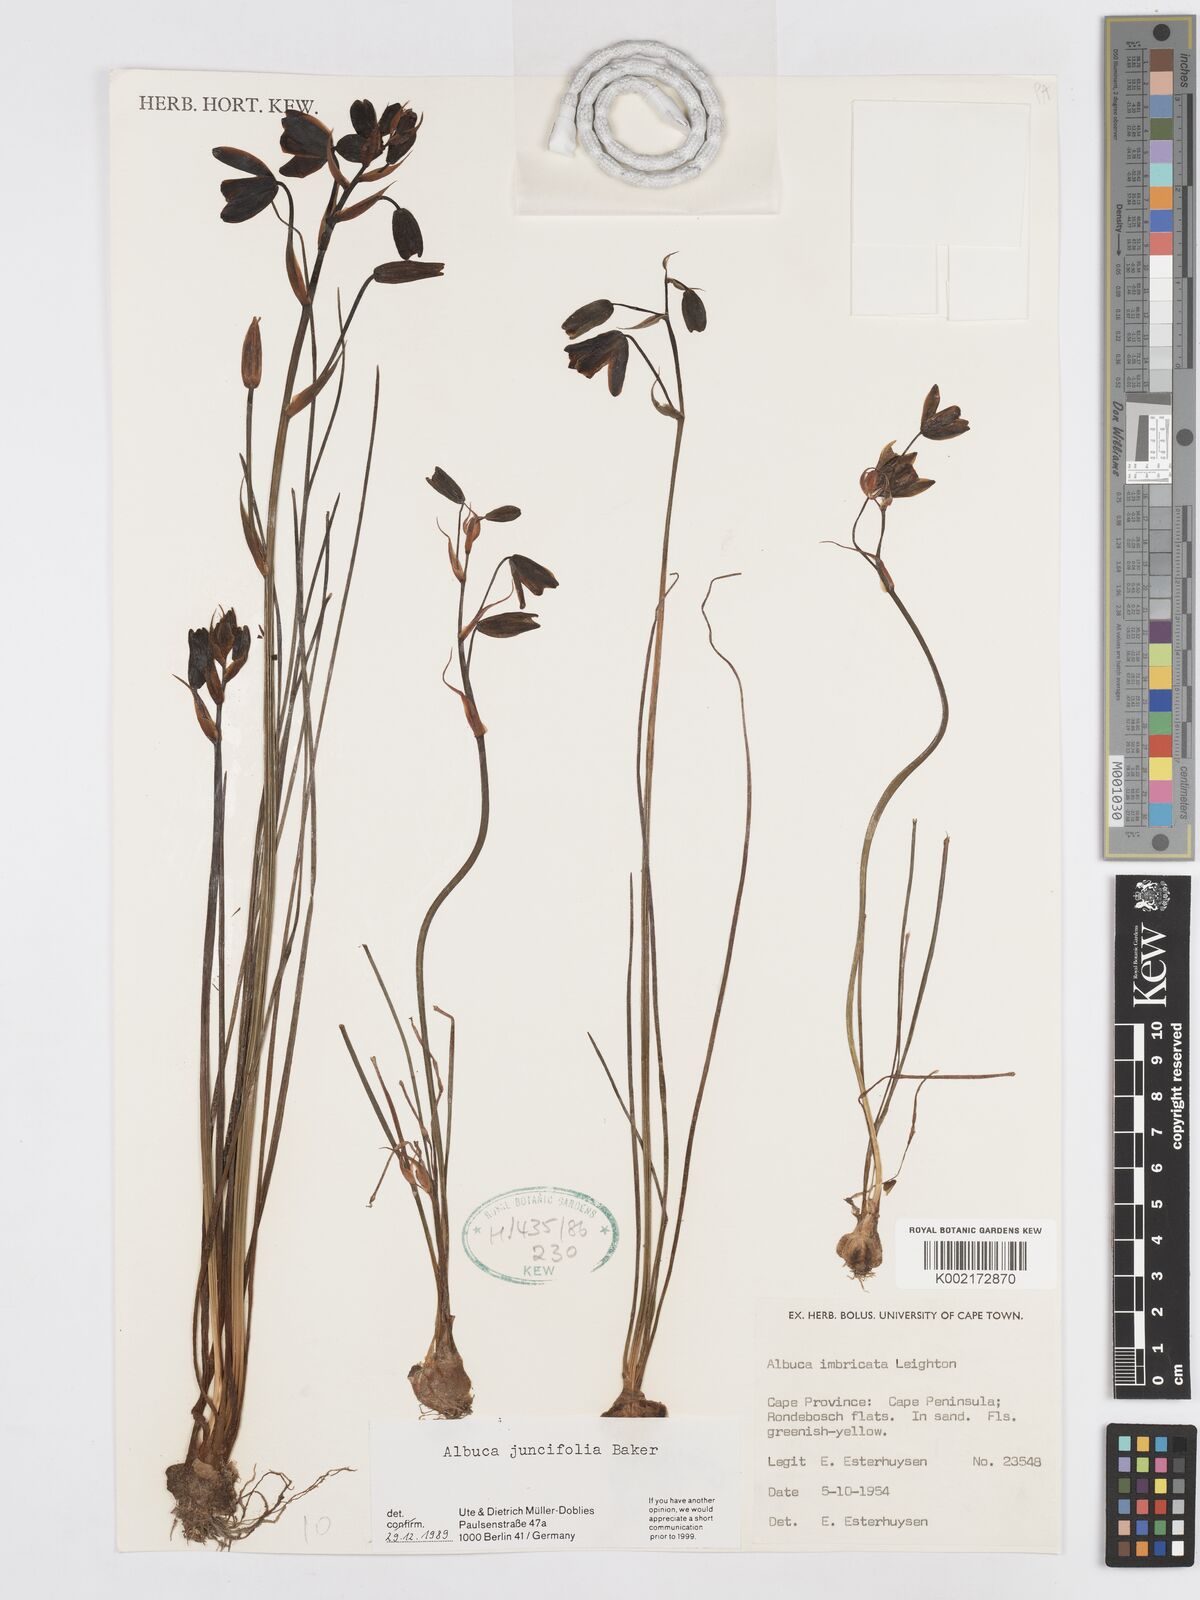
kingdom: Plantae
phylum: Tracheophyta
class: Liliopsida
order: Asparagales
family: Asparagaceae
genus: Albuca
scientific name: Albuca juncifolia
